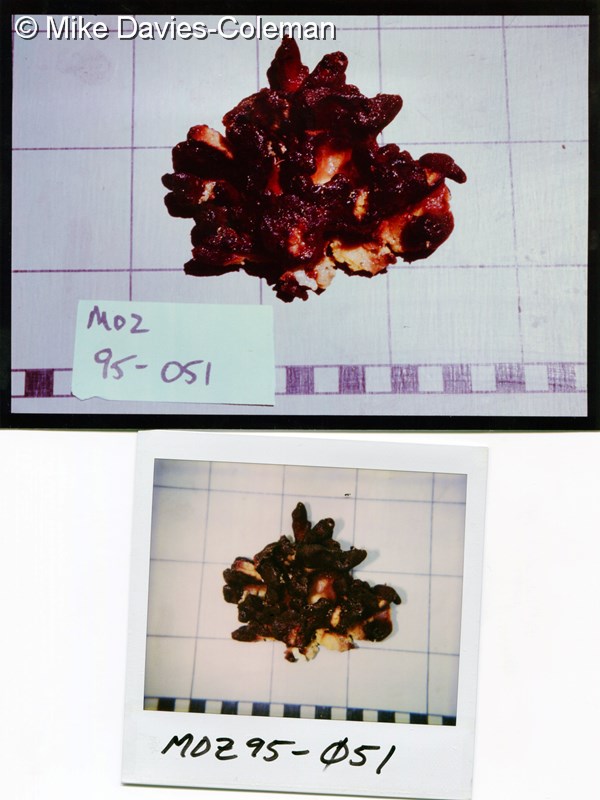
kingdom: Animalia
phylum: Porifera
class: Calcarea
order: Clathrinida
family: Clathrinidae
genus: Clathrina
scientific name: Clathrina
